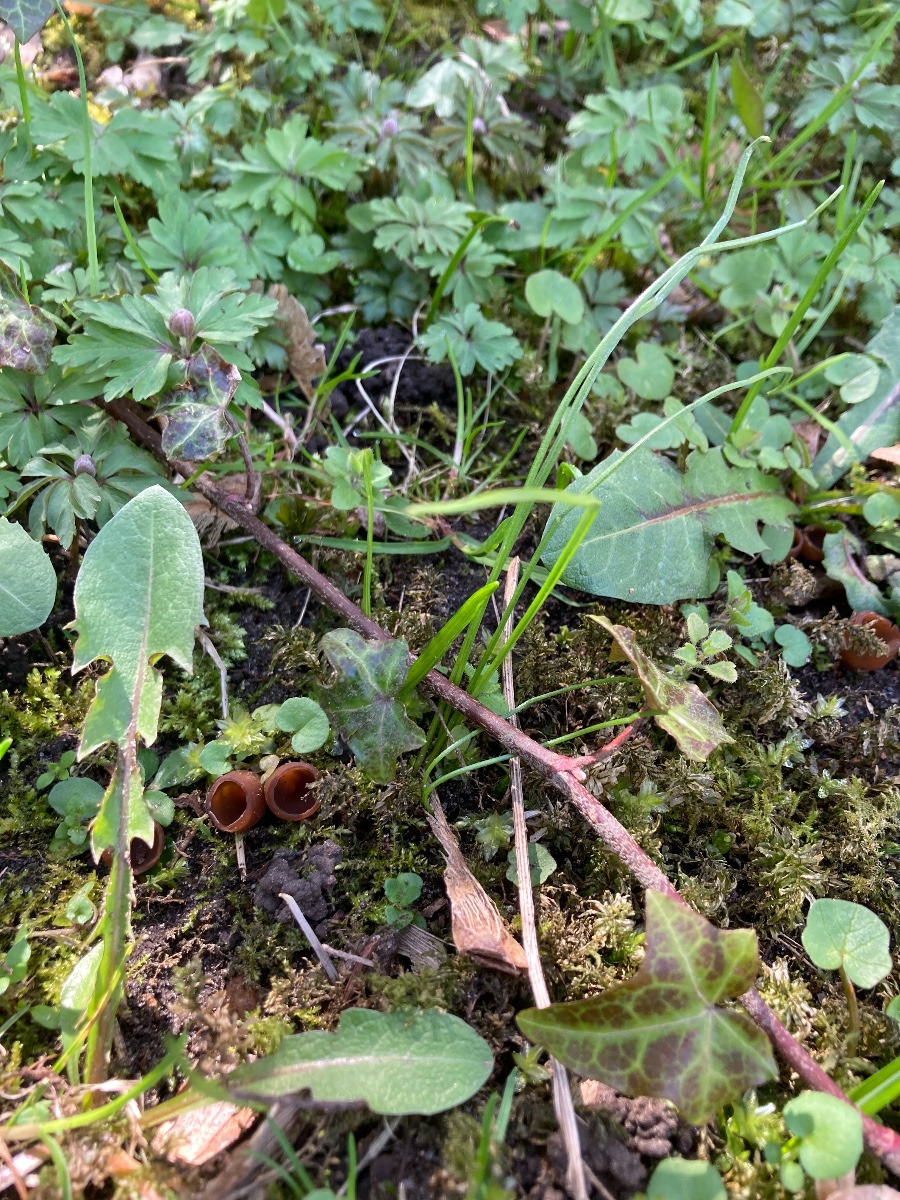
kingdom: Fungi
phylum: Ascomycota
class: Leotiomycetes
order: Helotiales
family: Sclerotiniaceae
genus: Dumontinia
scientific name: Dumontinia tuberosa
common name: anemone-knoldskive
